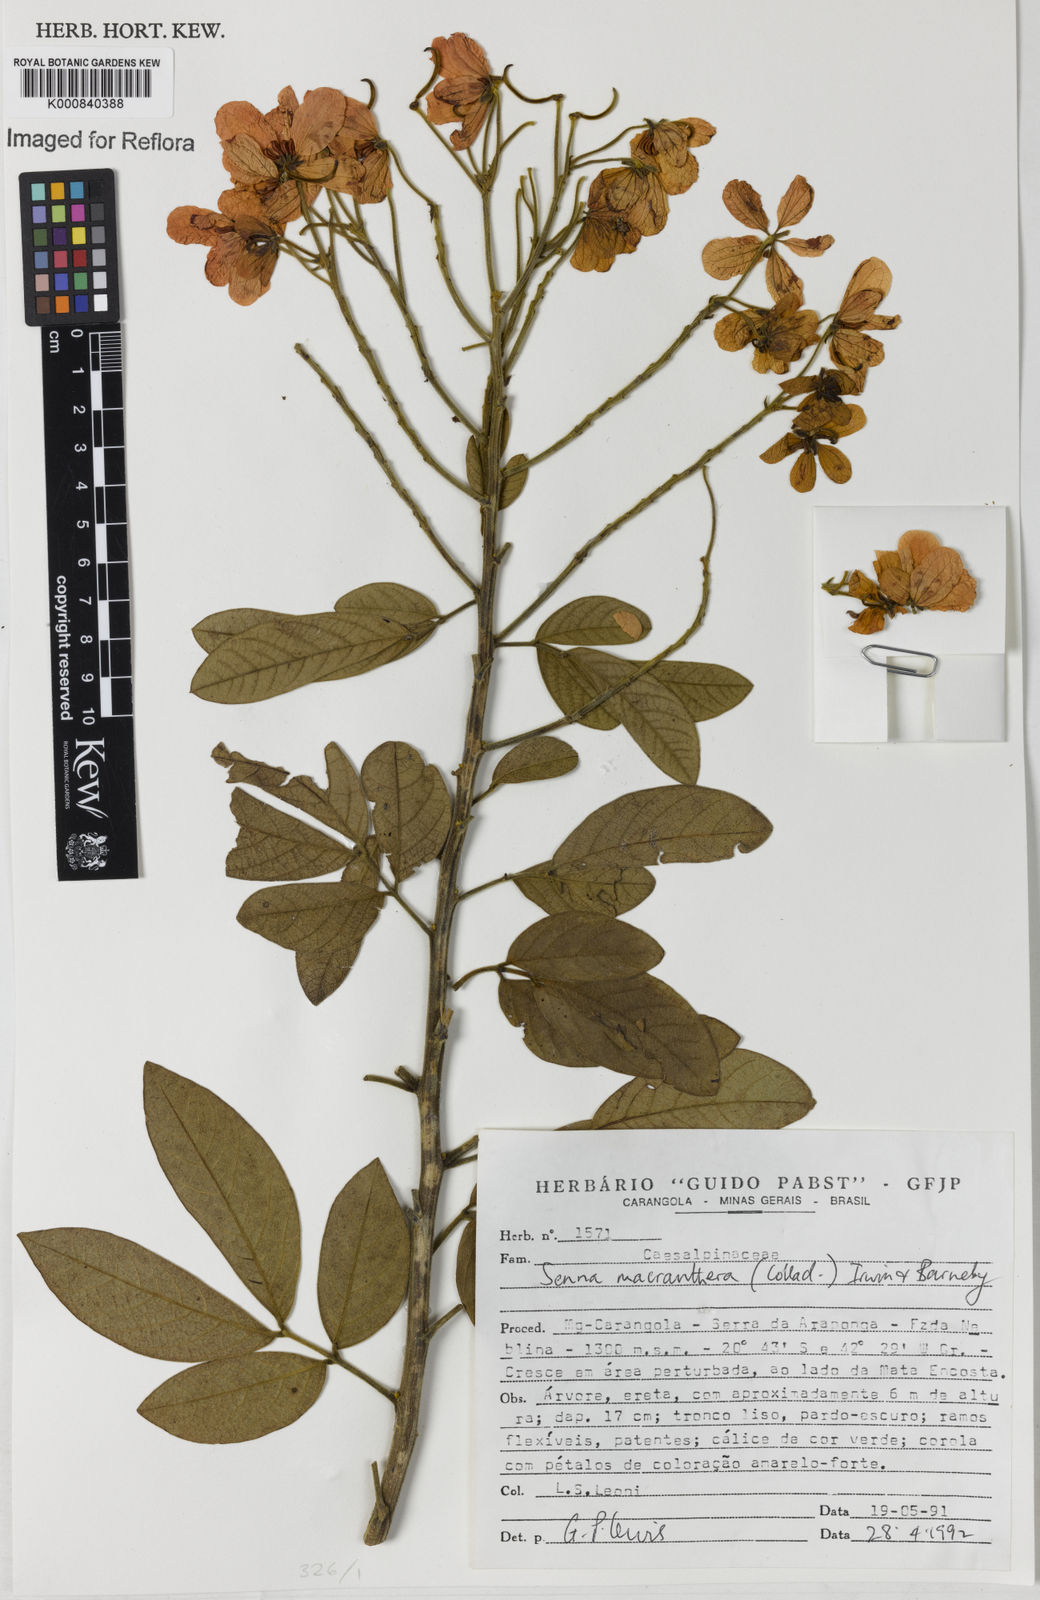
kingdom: Plantae
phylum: Tracheophyta
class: Magnoliopsida
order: Fabales
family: Fabaceae
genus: Senna
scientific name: Senna macranthera
